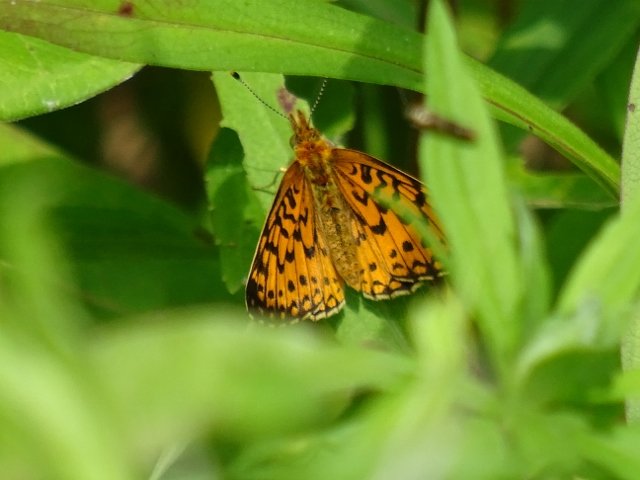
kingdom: Animalia
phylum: Arthropoda
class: Insecta
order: Lepidoptera
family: Nymphalidae
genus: Boloria
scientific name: Boloria selene
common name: Silver-bordered Fritillary
